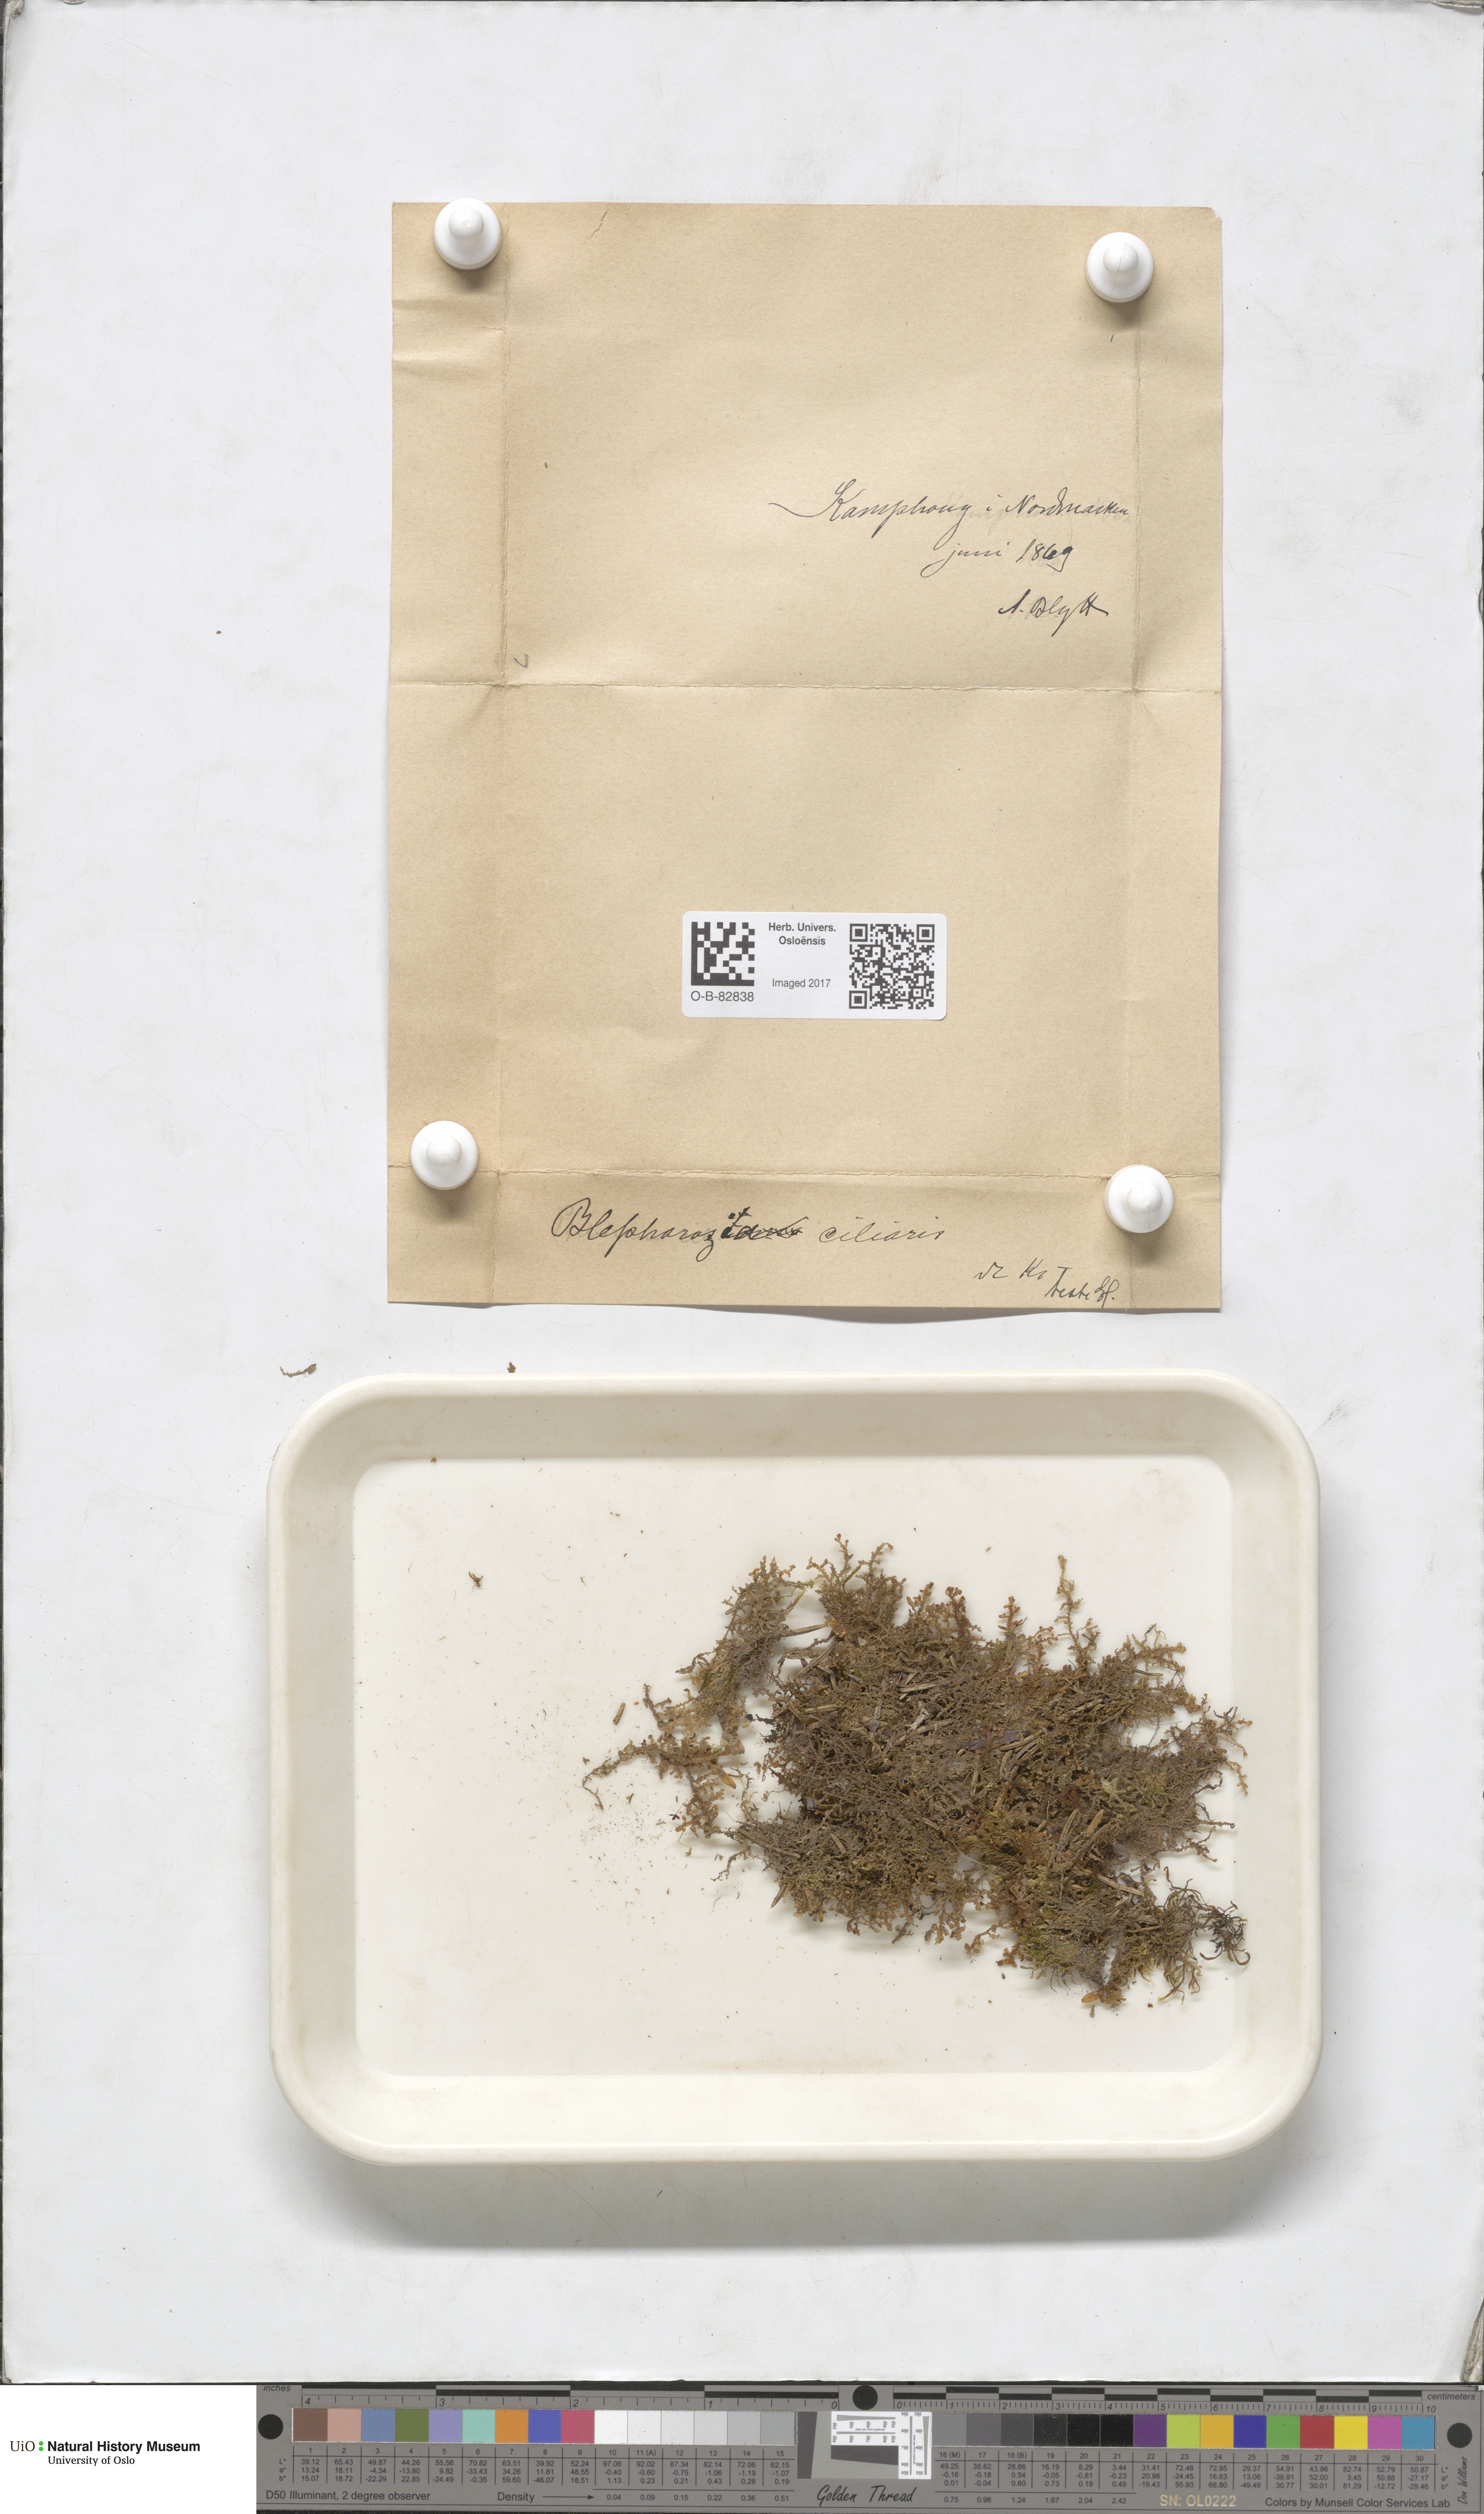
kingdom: Plantae
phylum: Marchantiophyta
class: Jungermanniopsida
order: Ptilidiales
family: Ptilidiaceae
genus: Ptilidium
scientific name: Ptilidium ciliare
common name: Ciliate fringewort
